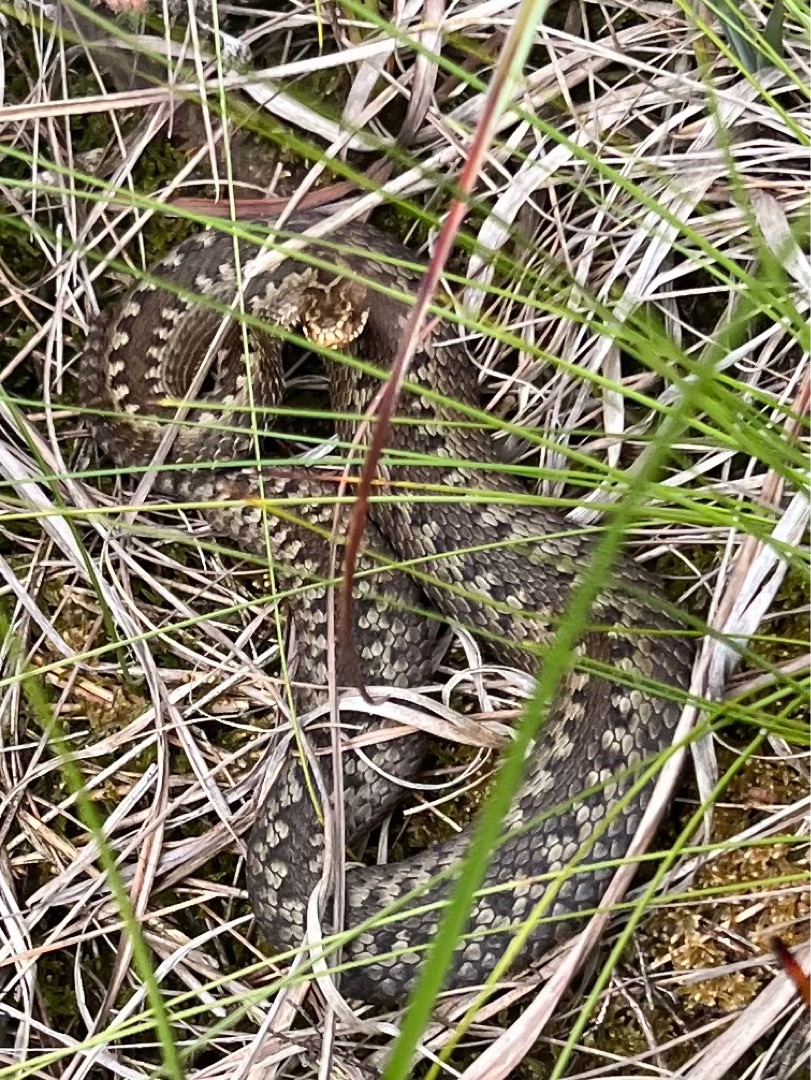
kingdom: Animalia
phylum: Chordata
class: Squamata
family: Viperidae
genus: Vipera
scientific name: Vipera berus
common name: Hugorm
